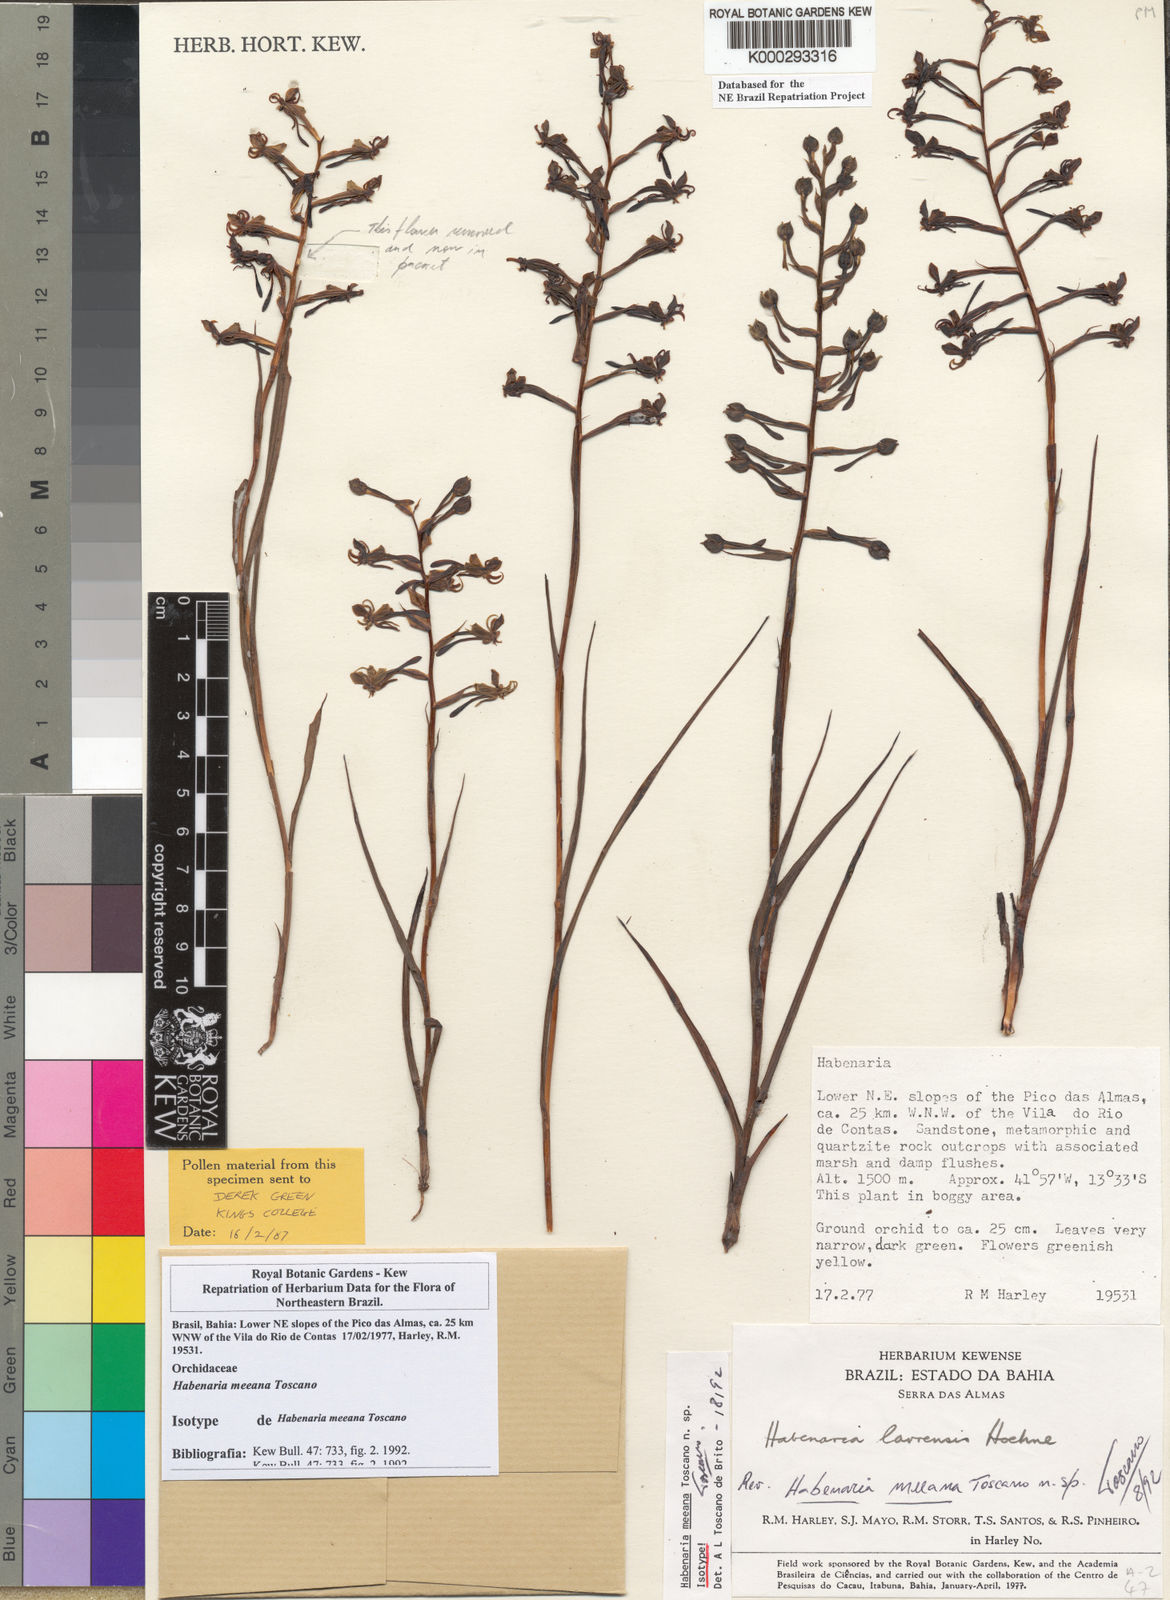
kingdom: Plantae
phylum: Tracheophyta
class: Liliopsida
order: Asparagales
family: Orchidaceae
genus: Habenaria
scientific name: Habenaria meeana
